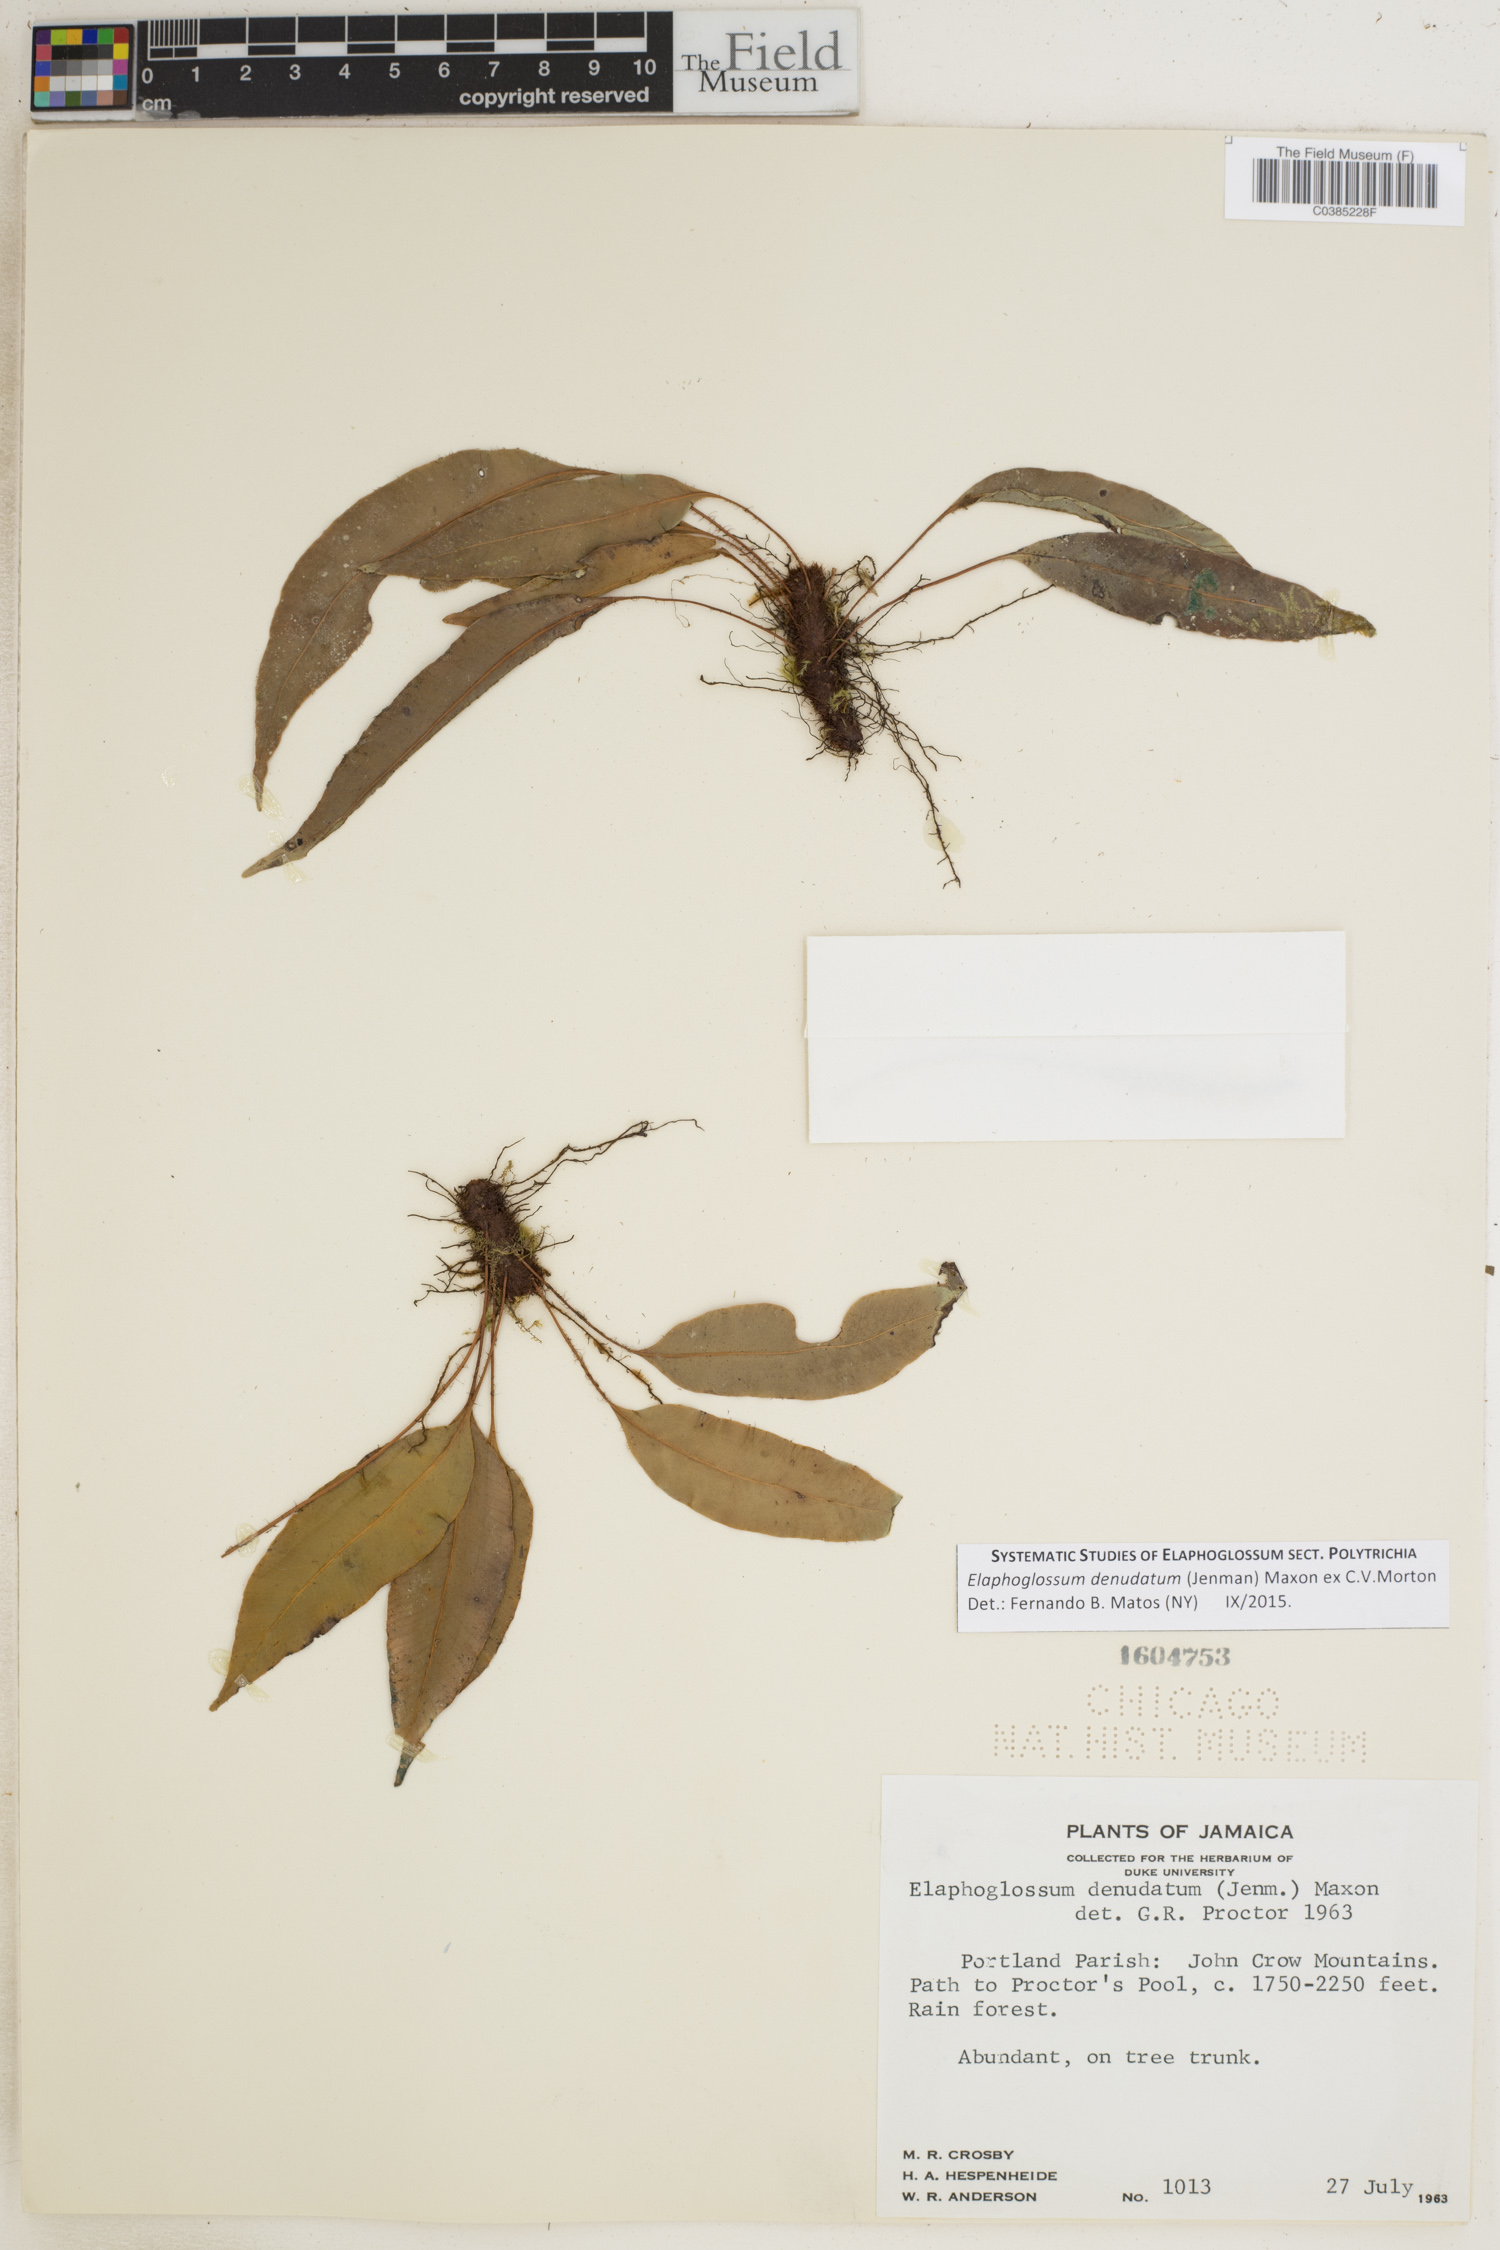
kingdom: Plantae
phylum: Tracheophyta
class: Polypodiopsida
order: Polypodiales
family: Dryopteridaceae
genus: Elaphoglossum
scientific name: Elaphoglossum denudatum
